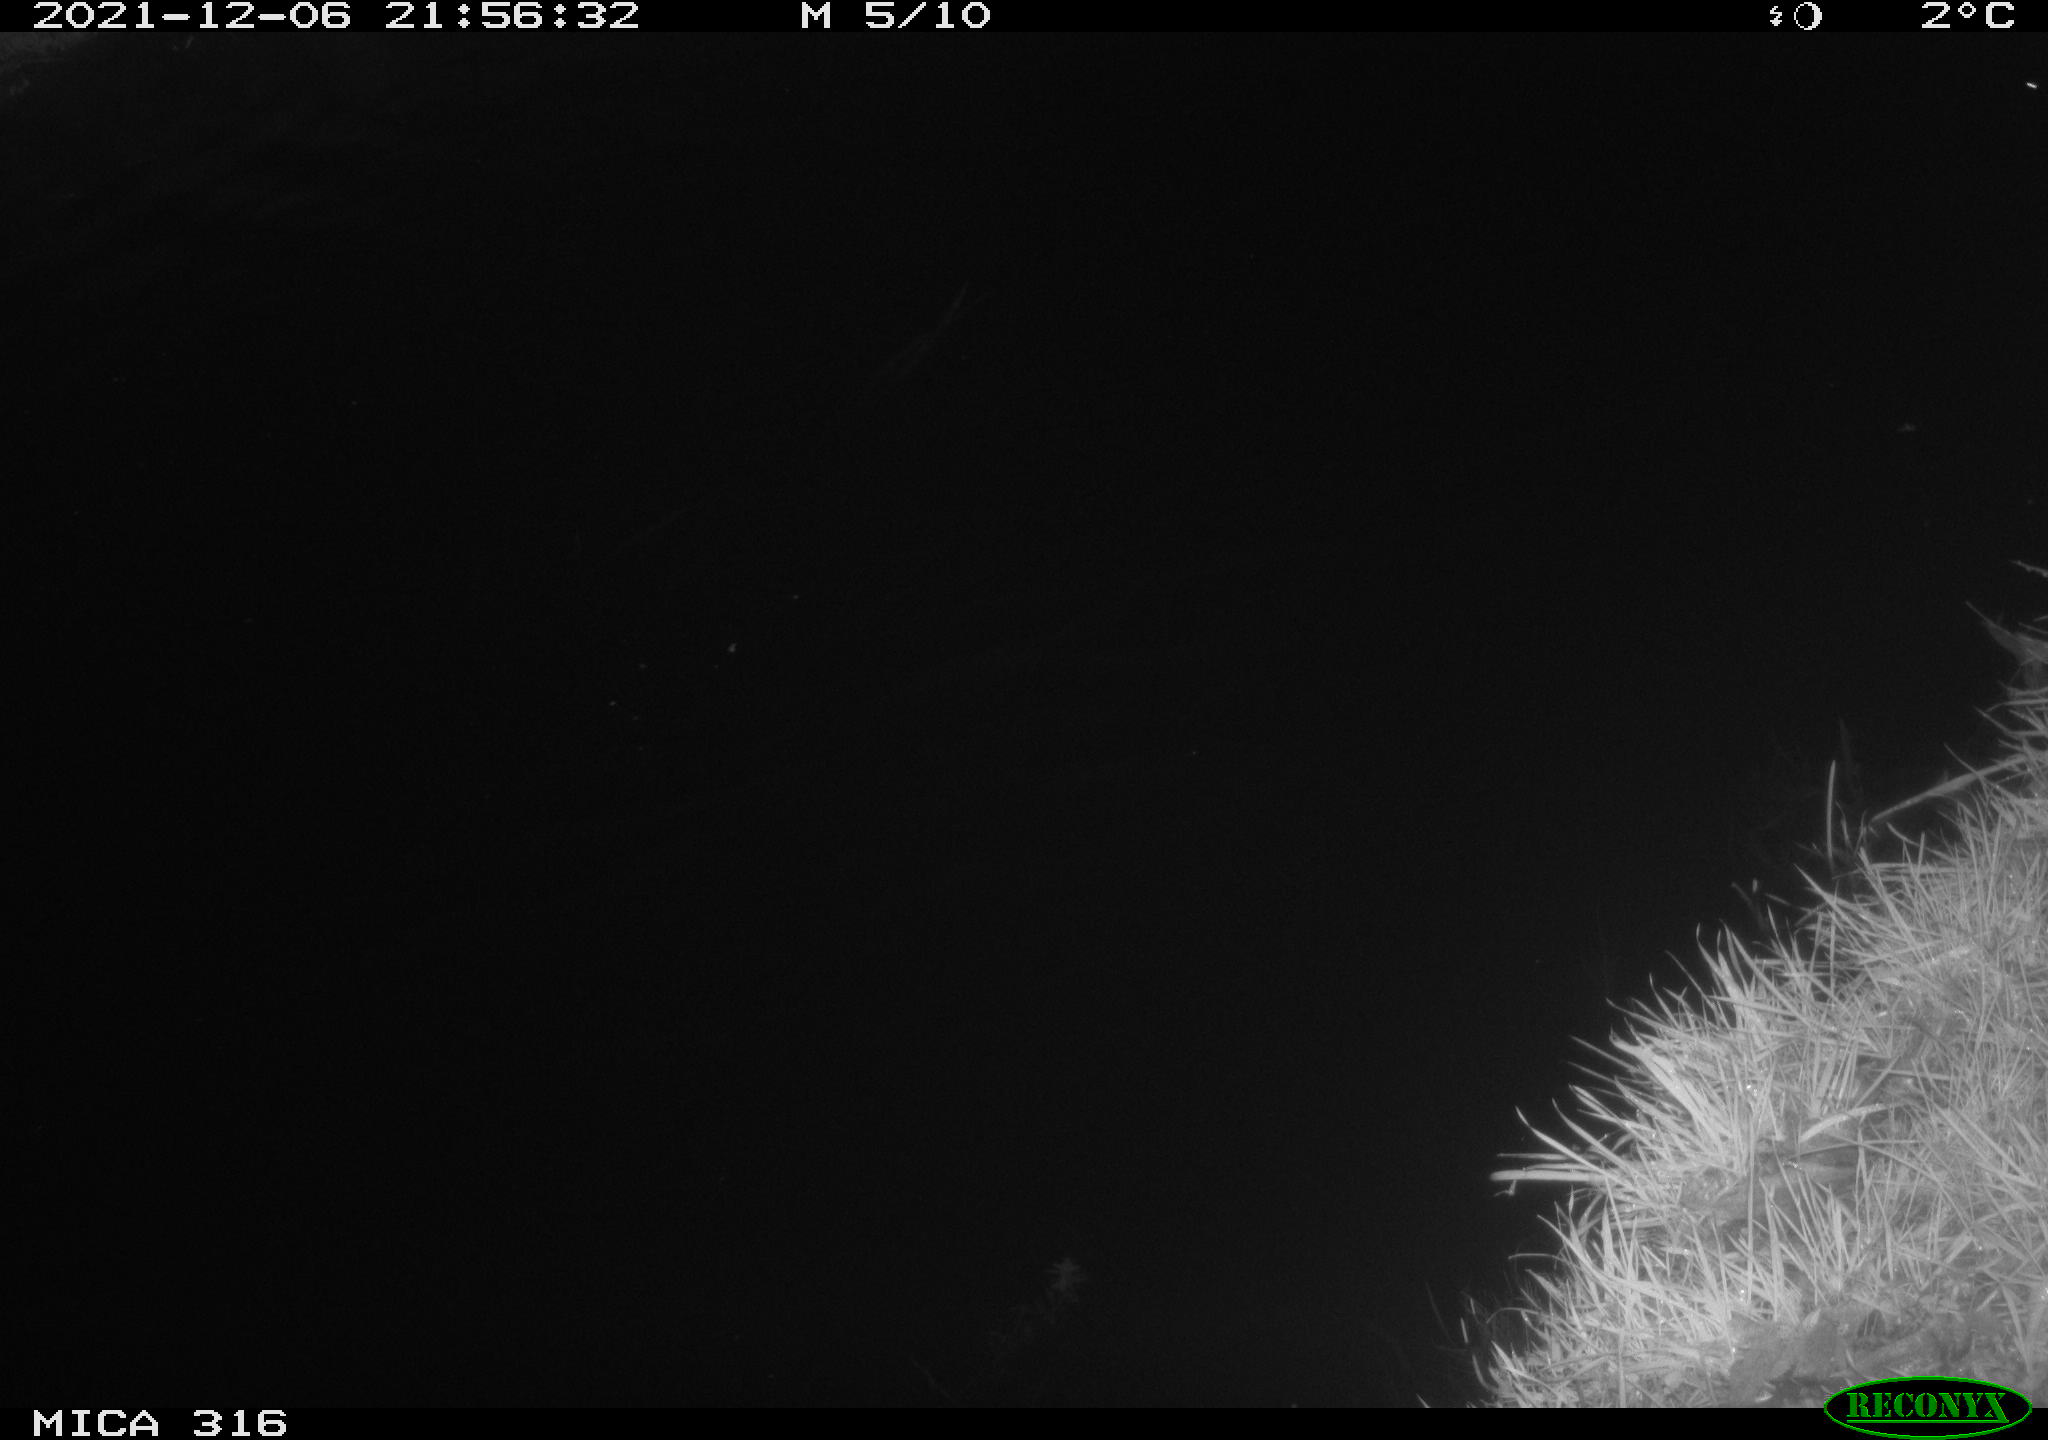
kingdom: Animalia
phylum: Chordata
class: Aves
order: Anseriformes
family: Anatidae
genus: Anas
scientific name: Anas platyrhynchos
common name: Mallard
